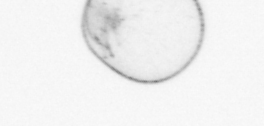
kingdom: Chromista
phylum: Myzozoa
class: Dinophyceae
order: Noctilucales
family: Noctilucaceae
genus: Noctiluca
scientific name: Noctiluca scintillans
